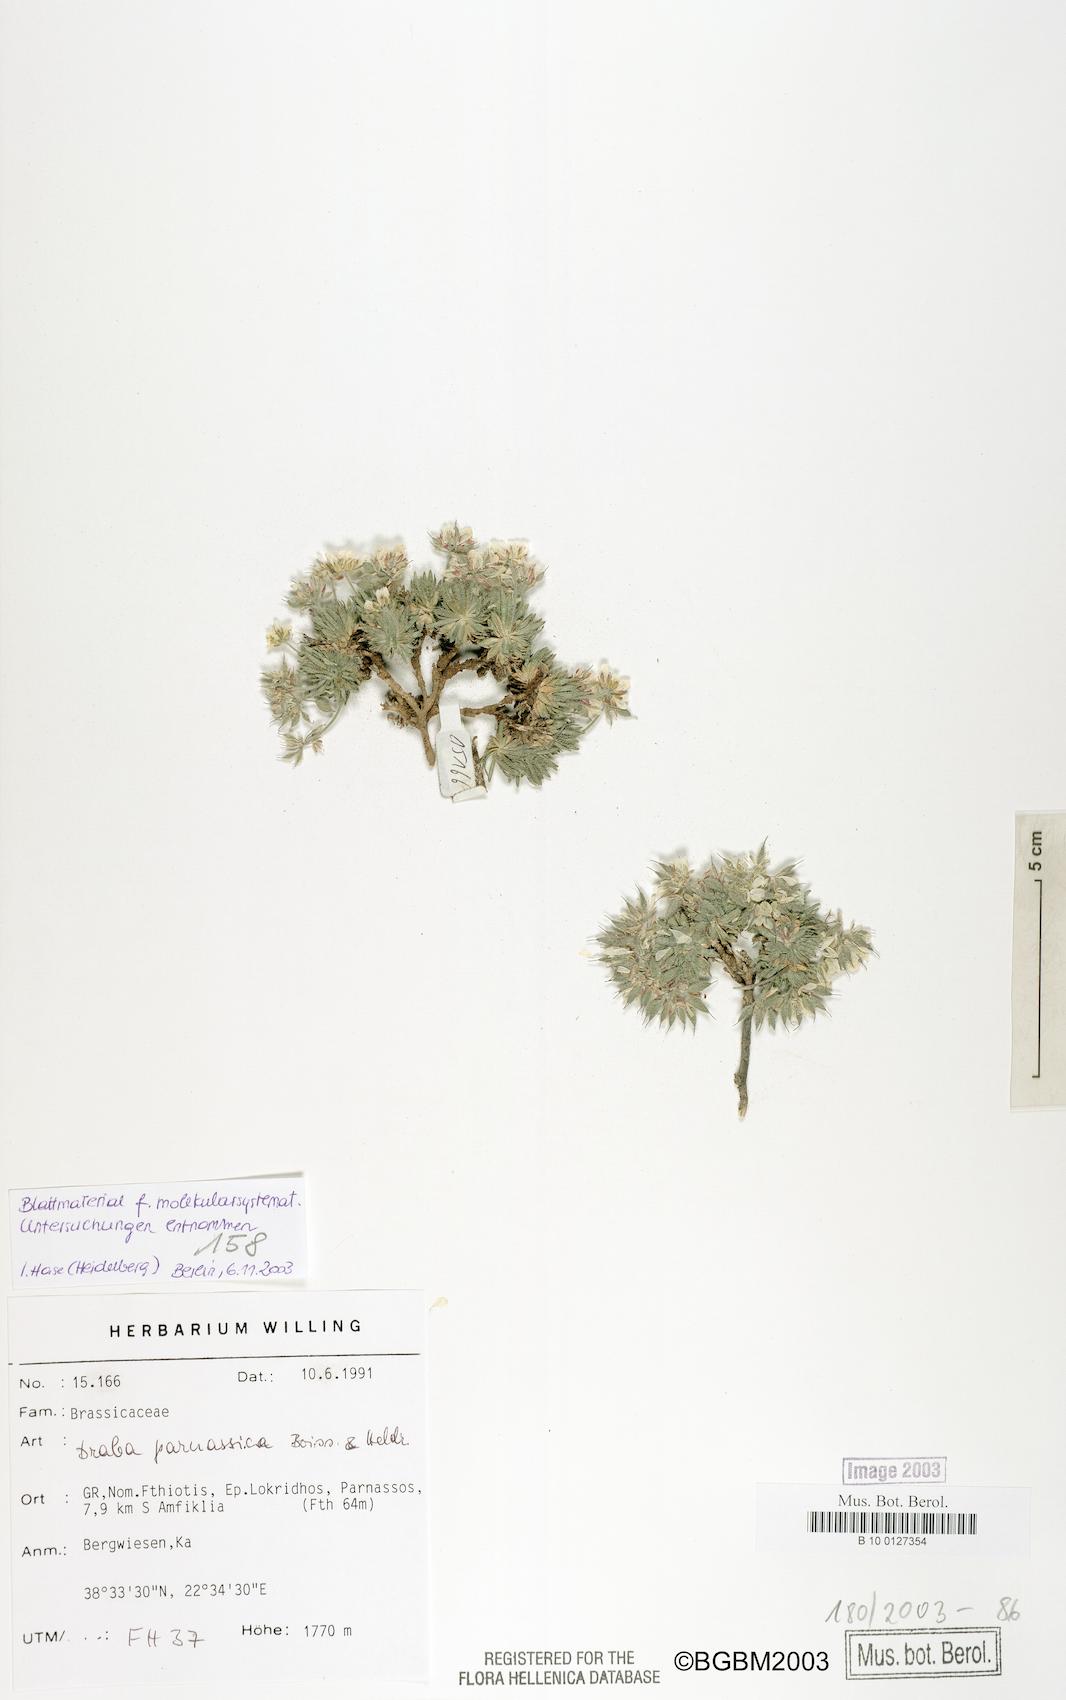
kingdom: Plantae
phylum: Tracheophyta
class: Magnoliopsida
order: Brassicales
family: Brassicaceae
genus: Draba
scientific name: Draba parnassica
